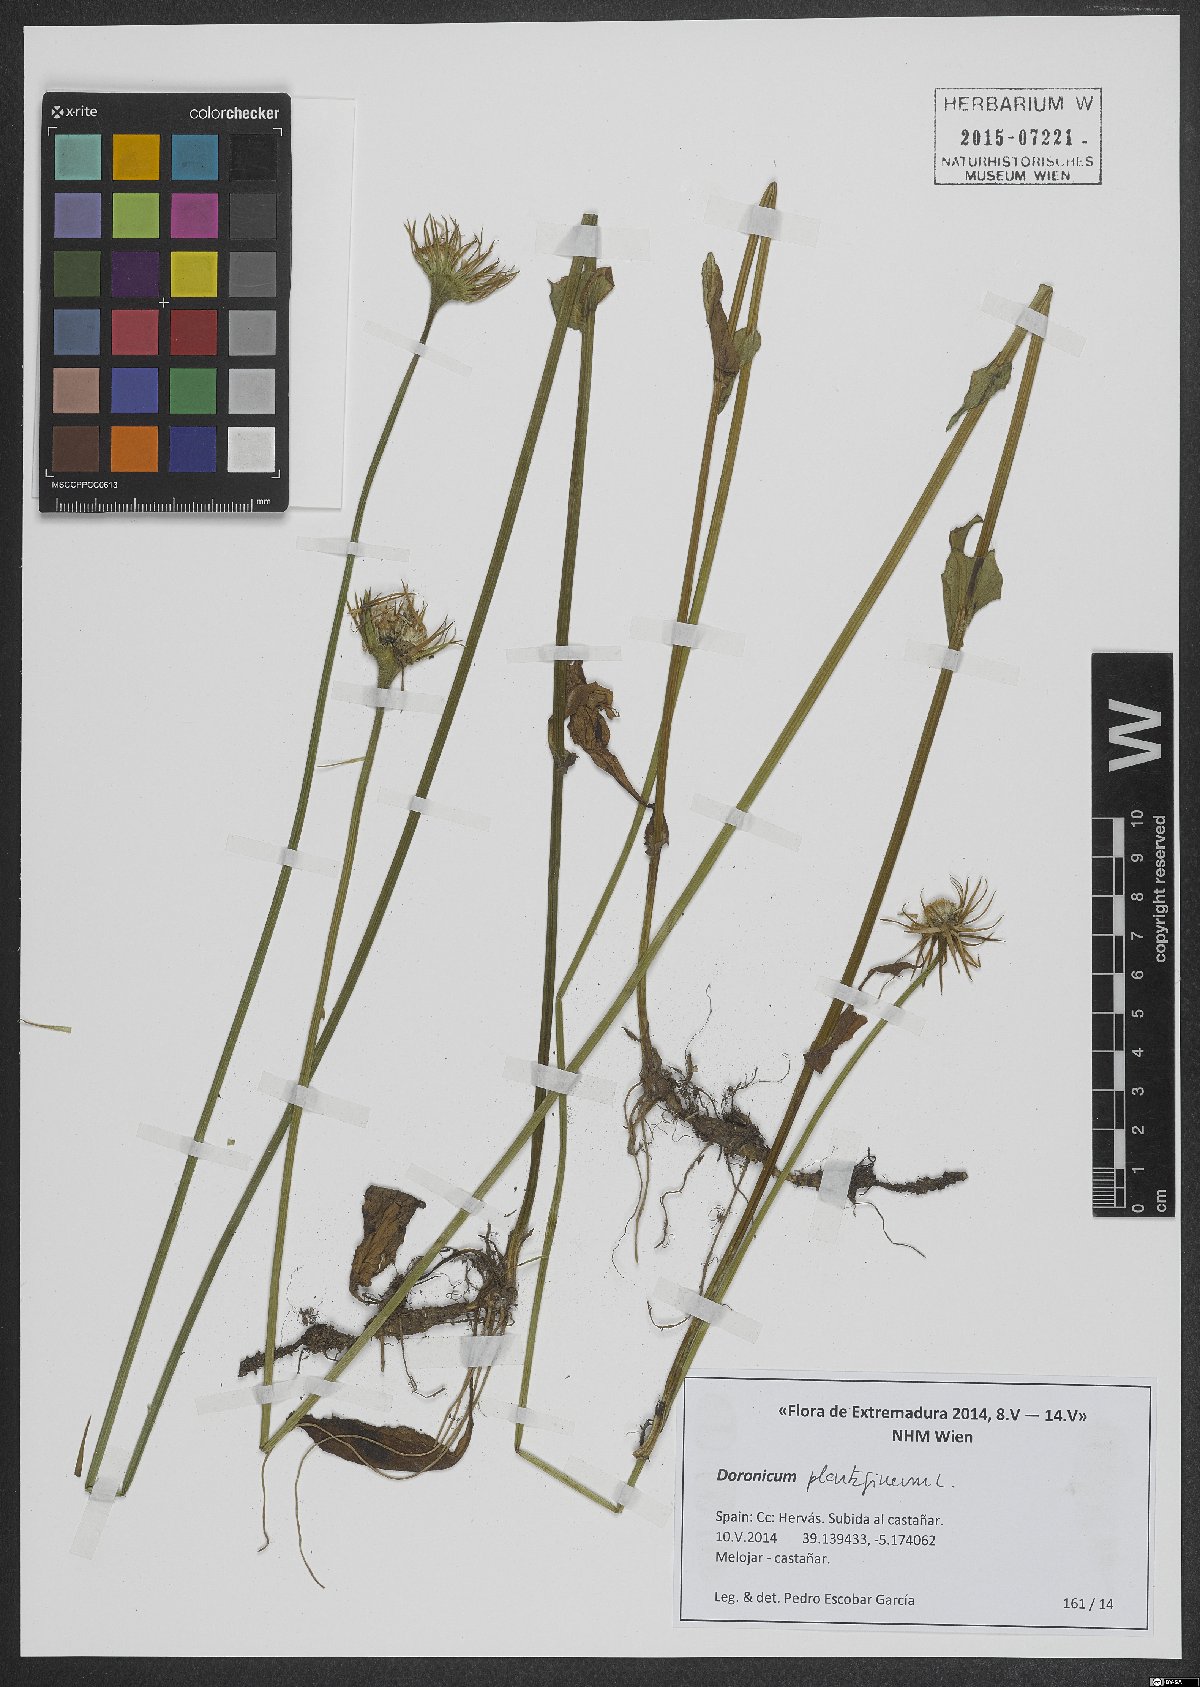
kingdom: Plantae
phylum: Tracheophyta
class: Magnoliopsida
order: Asterales
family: Asteraceae
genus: Doronicum
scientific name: Doronicum plantagineum
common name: Plantain-leaved leopard's-bane
